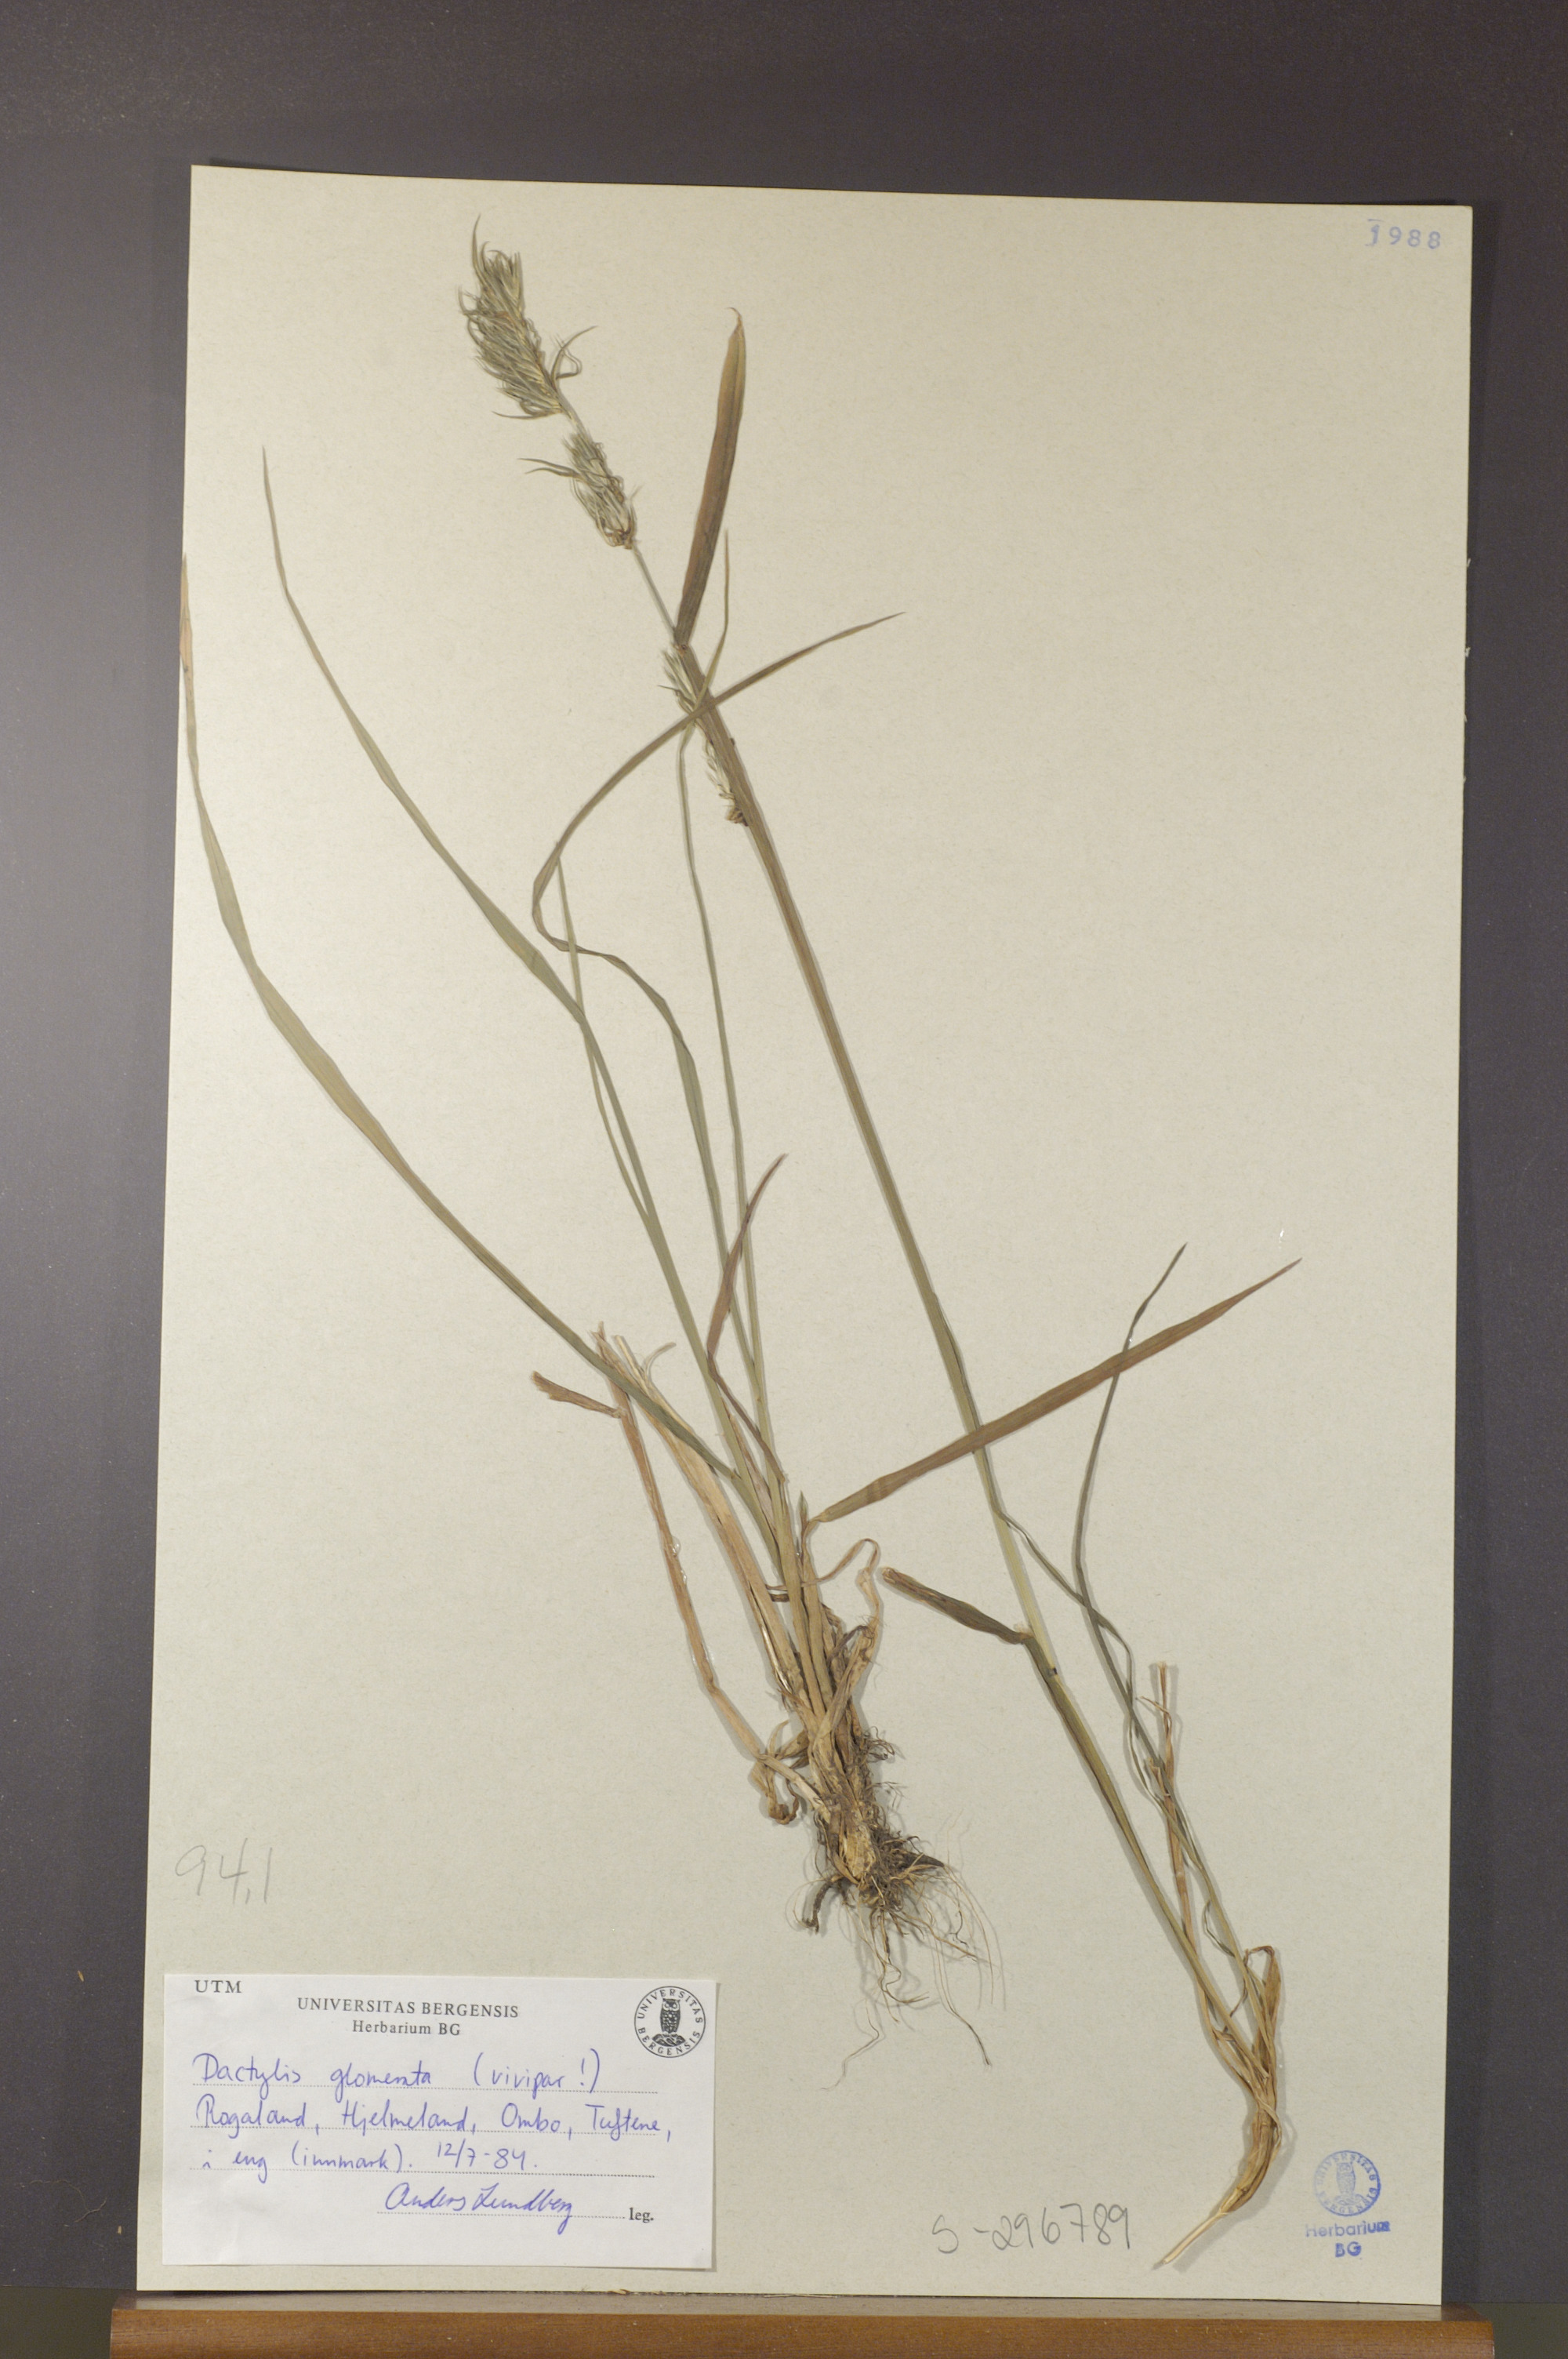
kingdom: Plantae
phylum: Tracheophyta
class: Liliopsida
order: Poales
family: Poaceae
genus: Dactylis
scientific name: Dactylis glomerata
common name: Orchardgrass
